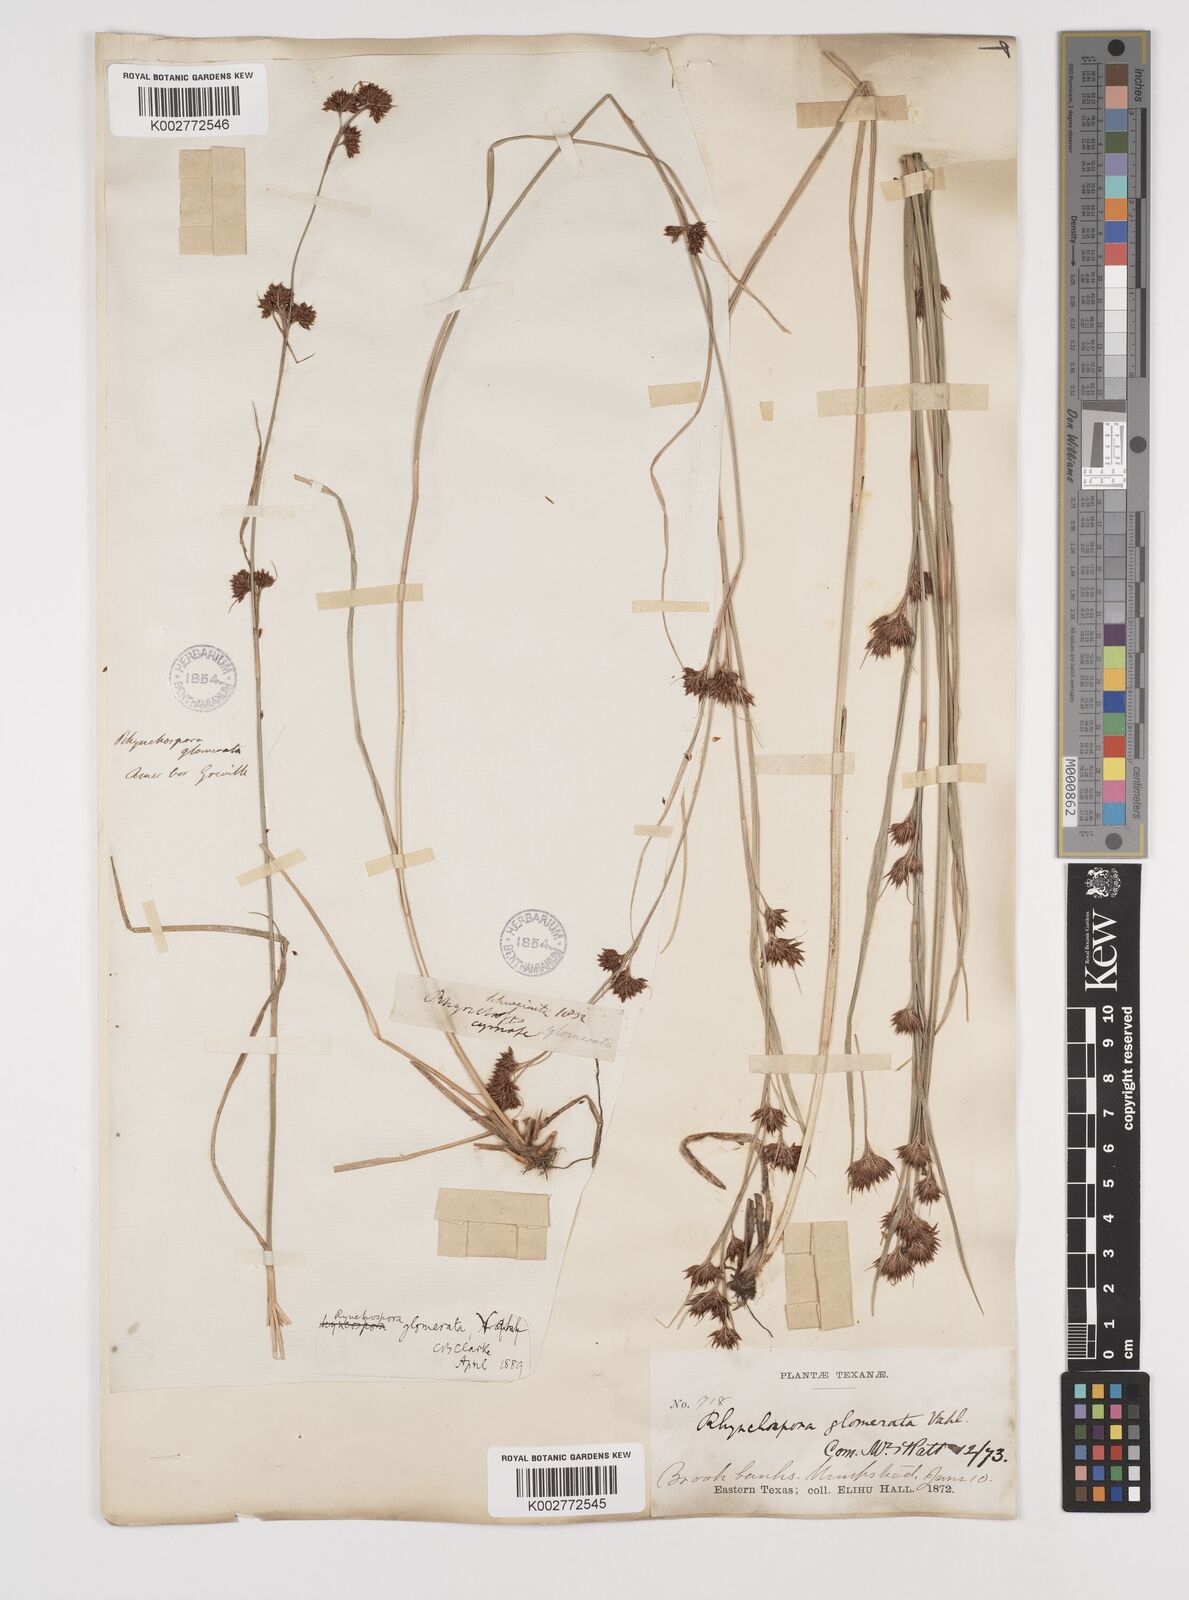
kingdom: Plantae
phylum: Tracheophyta
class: Liliopsida
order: Poales
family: Cyperaceae
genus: Rhynchospora
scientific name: Rhynchospora glomerata
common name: Cluster beak sedge
